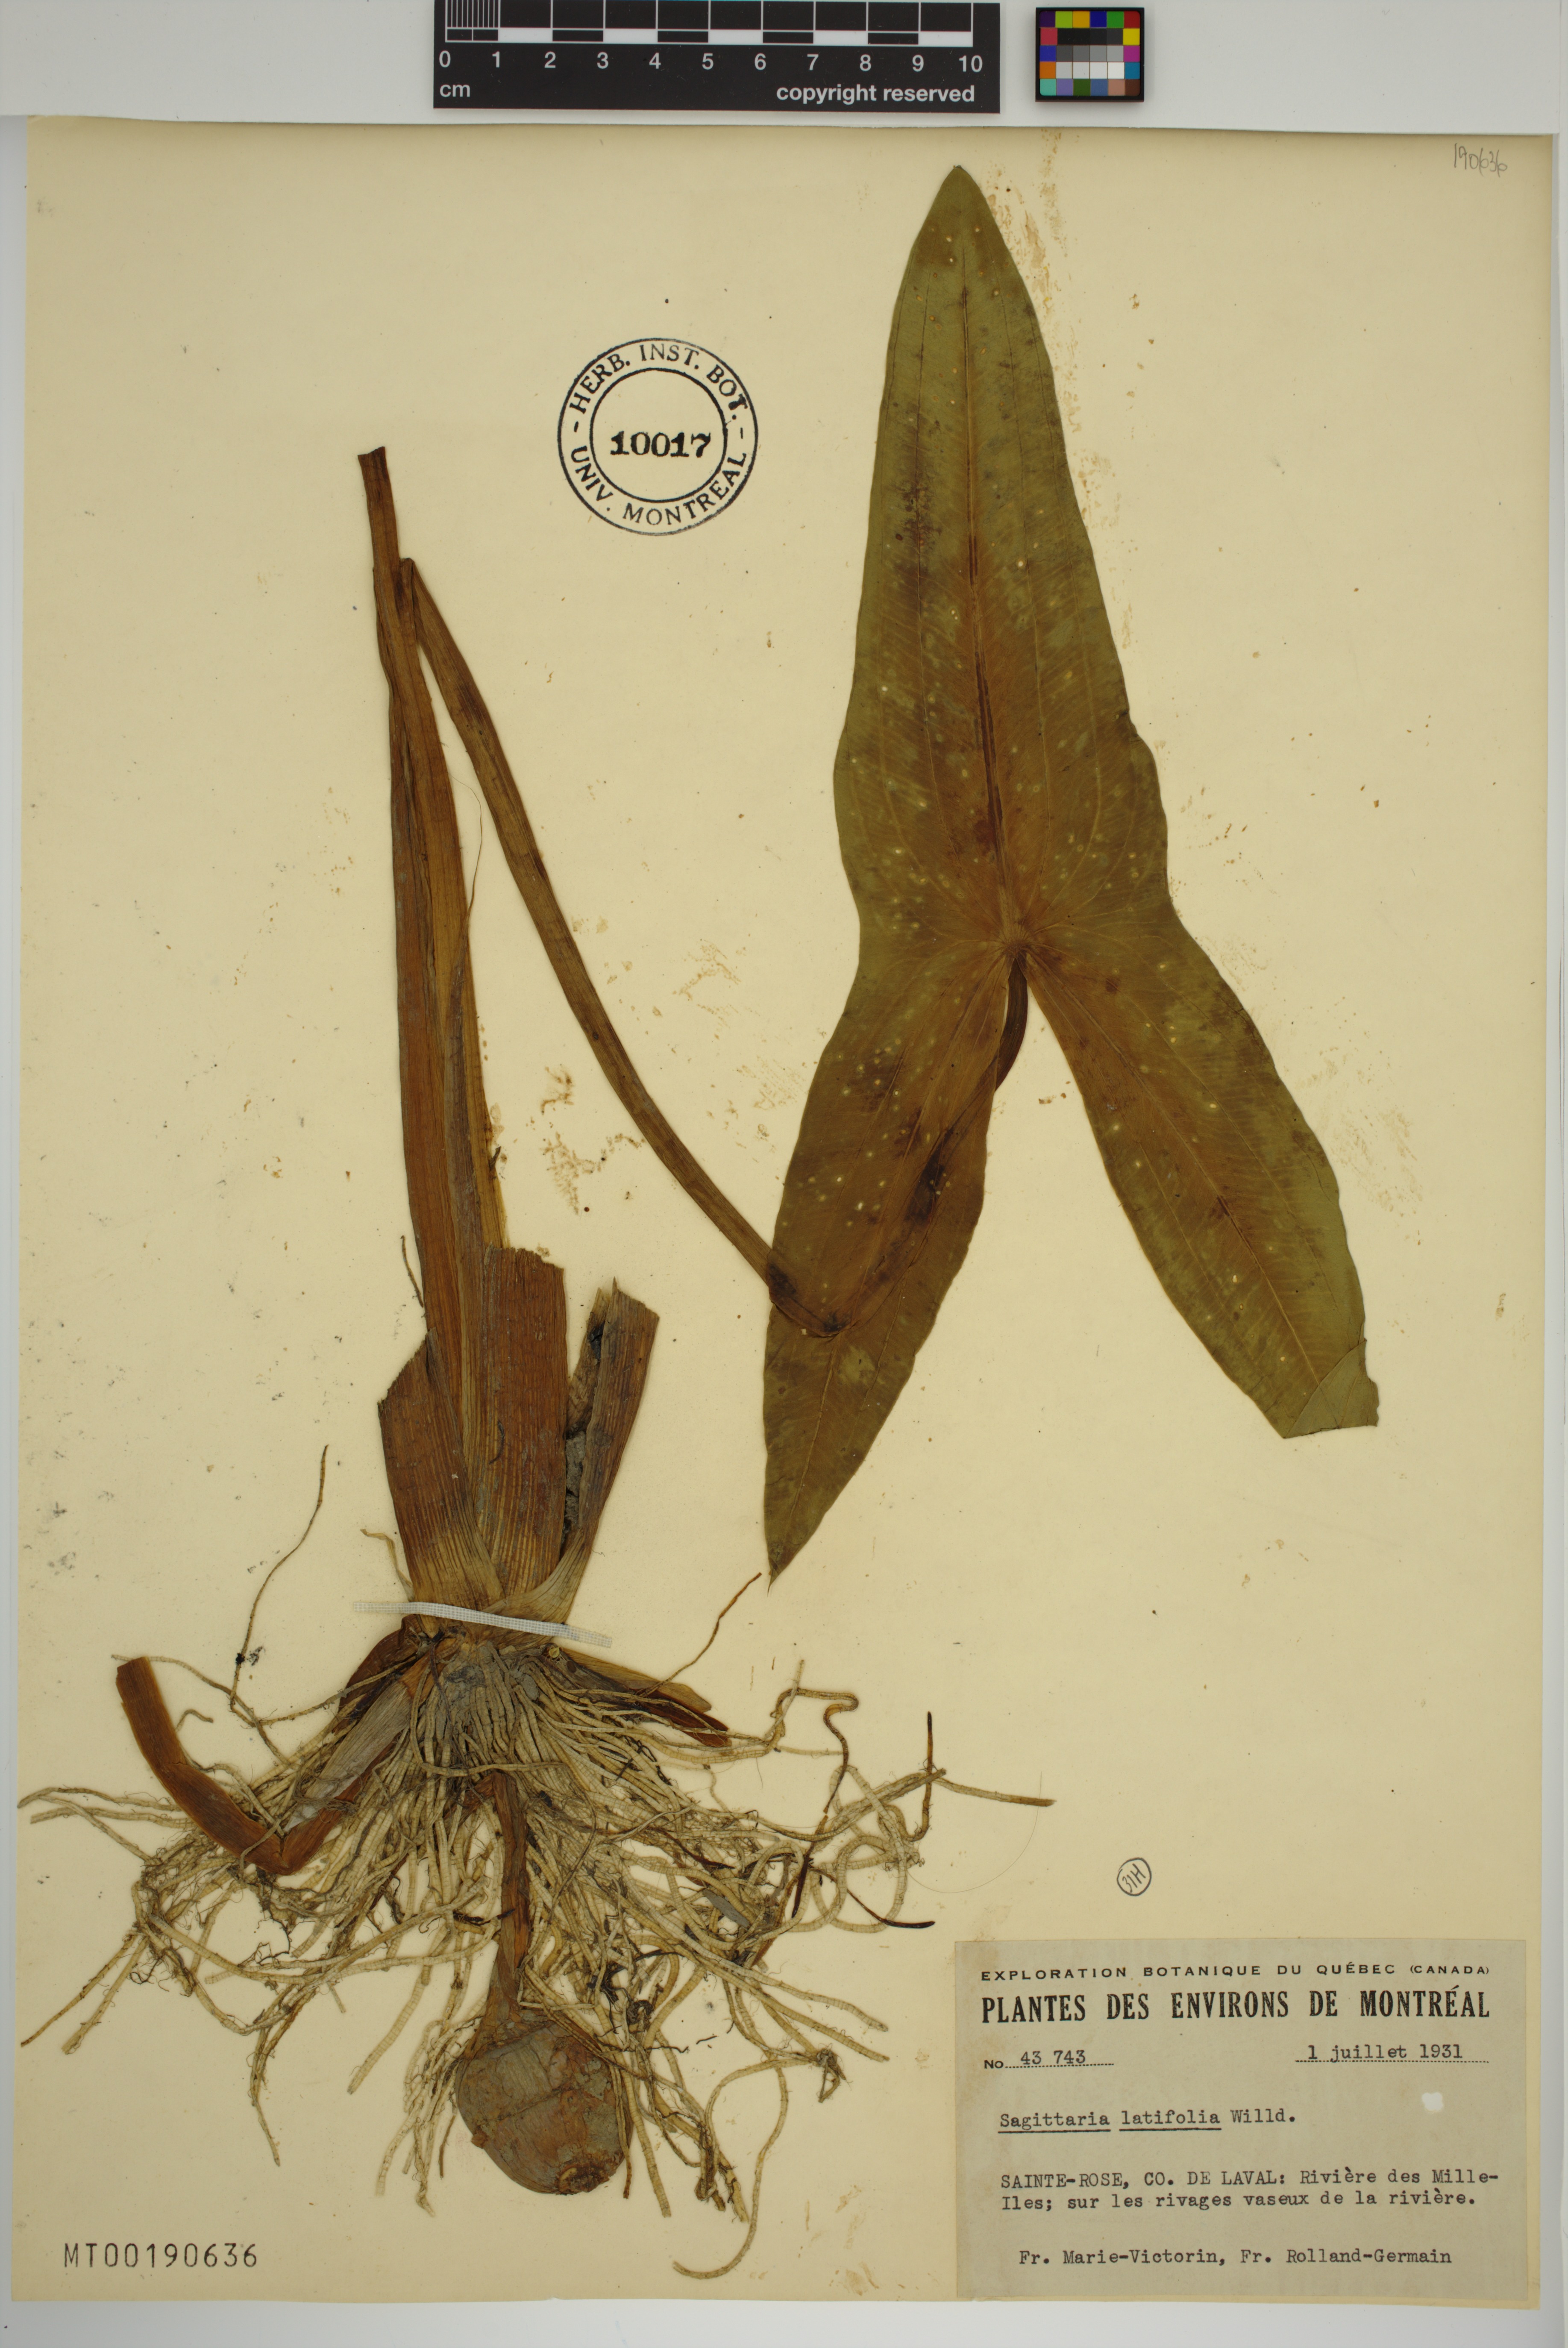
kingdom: Plantae
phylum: Tracheophyta
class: Liliopsida
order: Alismatales
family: Alismataceae
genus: Sagittaria
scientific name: Sagittaria latifolia
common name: Duck-potato
